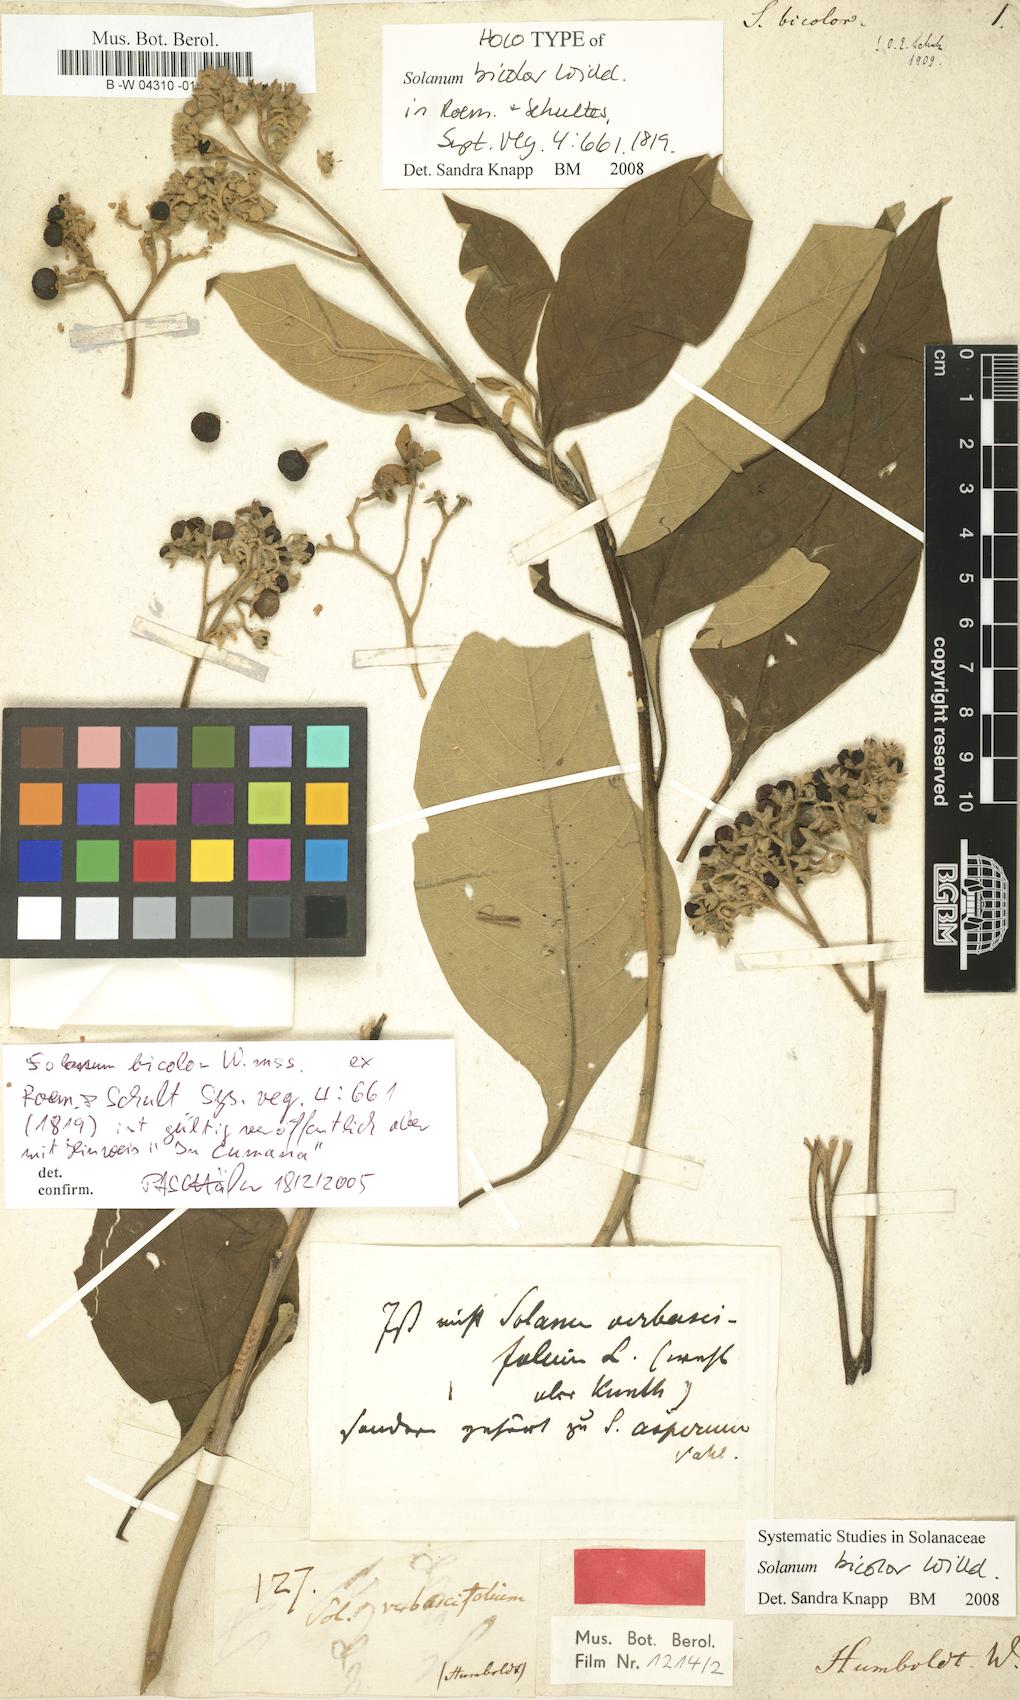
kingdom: Plantae
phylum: Tracheophyta
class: Magnoliopsida
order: Solanales
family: Solanaceae
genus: Solanum
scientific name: Solanum bicolor
